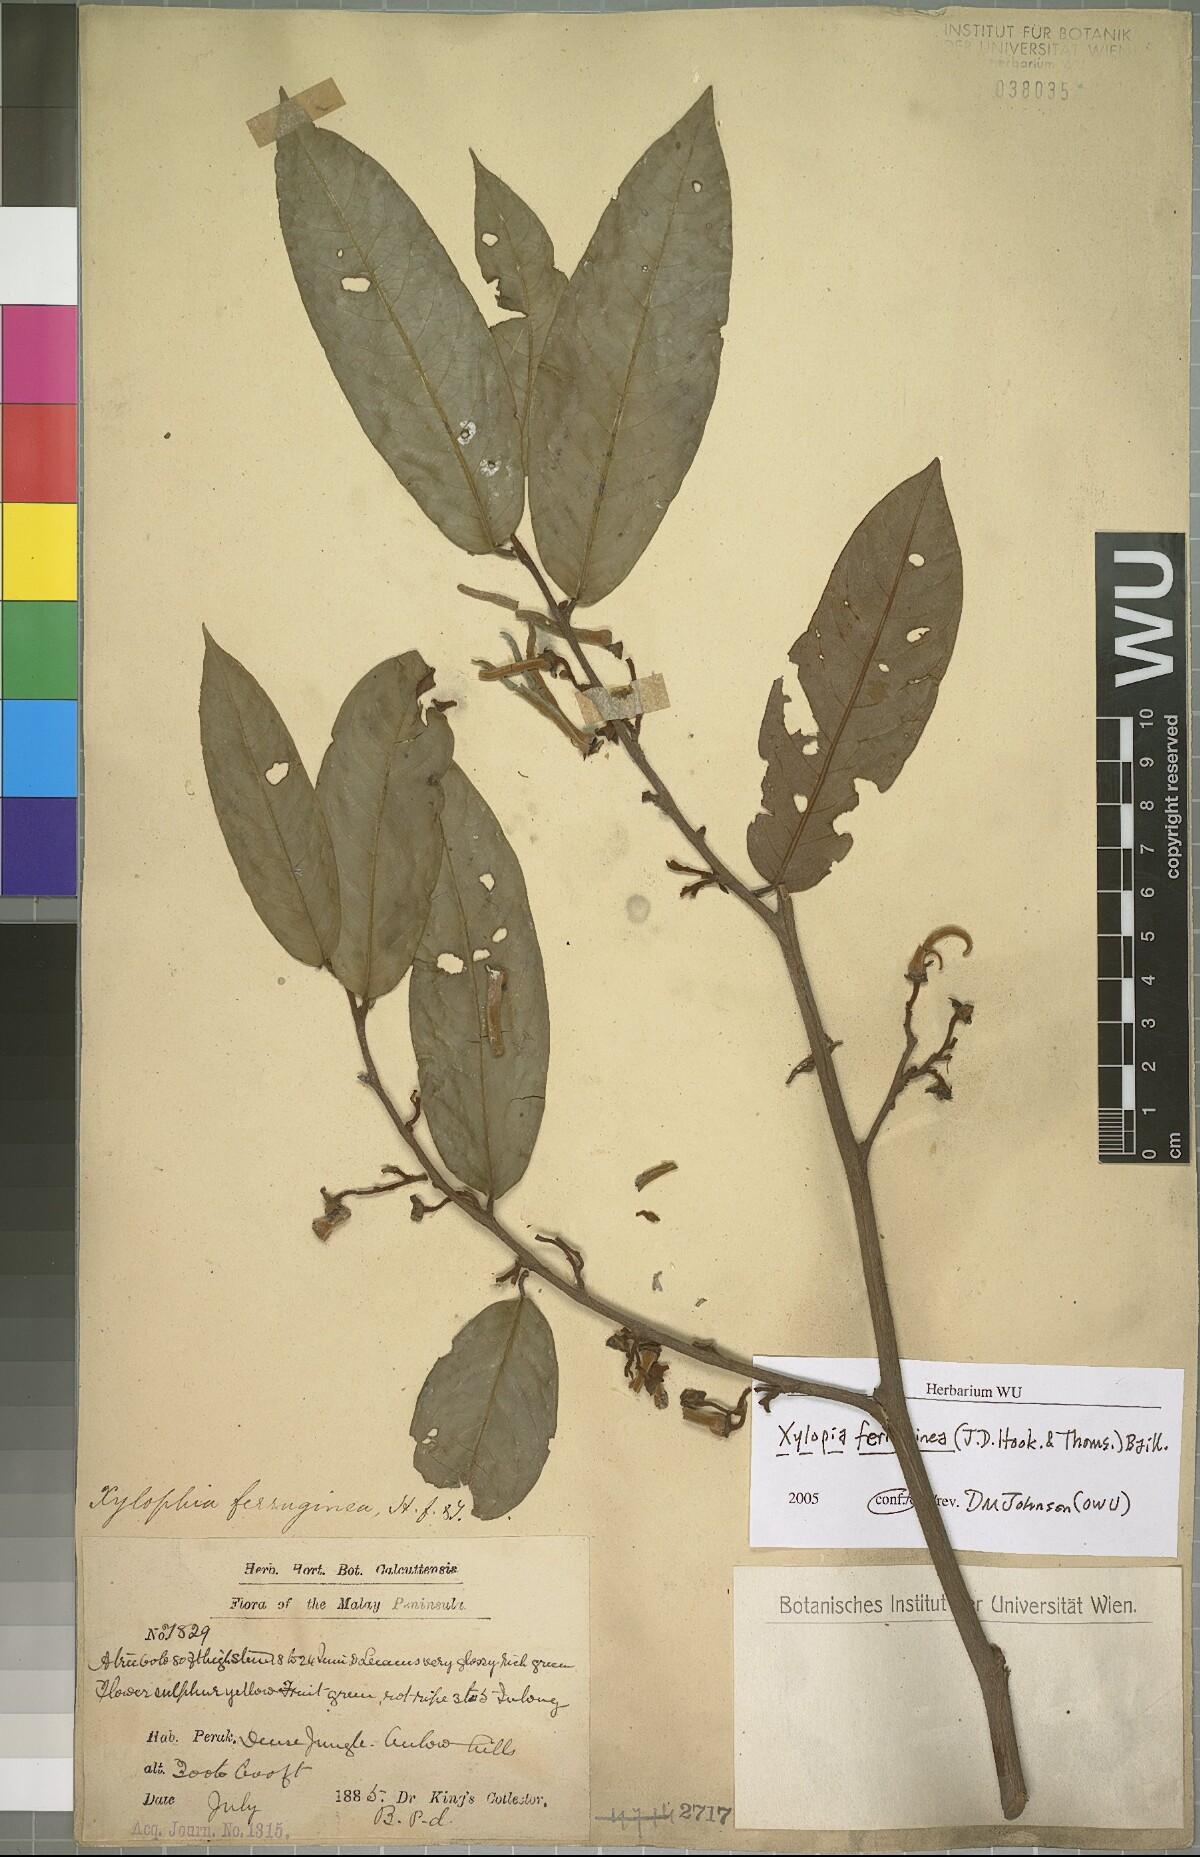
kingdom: Plantae
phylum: Tracheophyta
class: Magnoliopsida
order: Magnoliales
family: Annonaceae
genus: Xylopia
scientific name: Xylopia ferruginea
